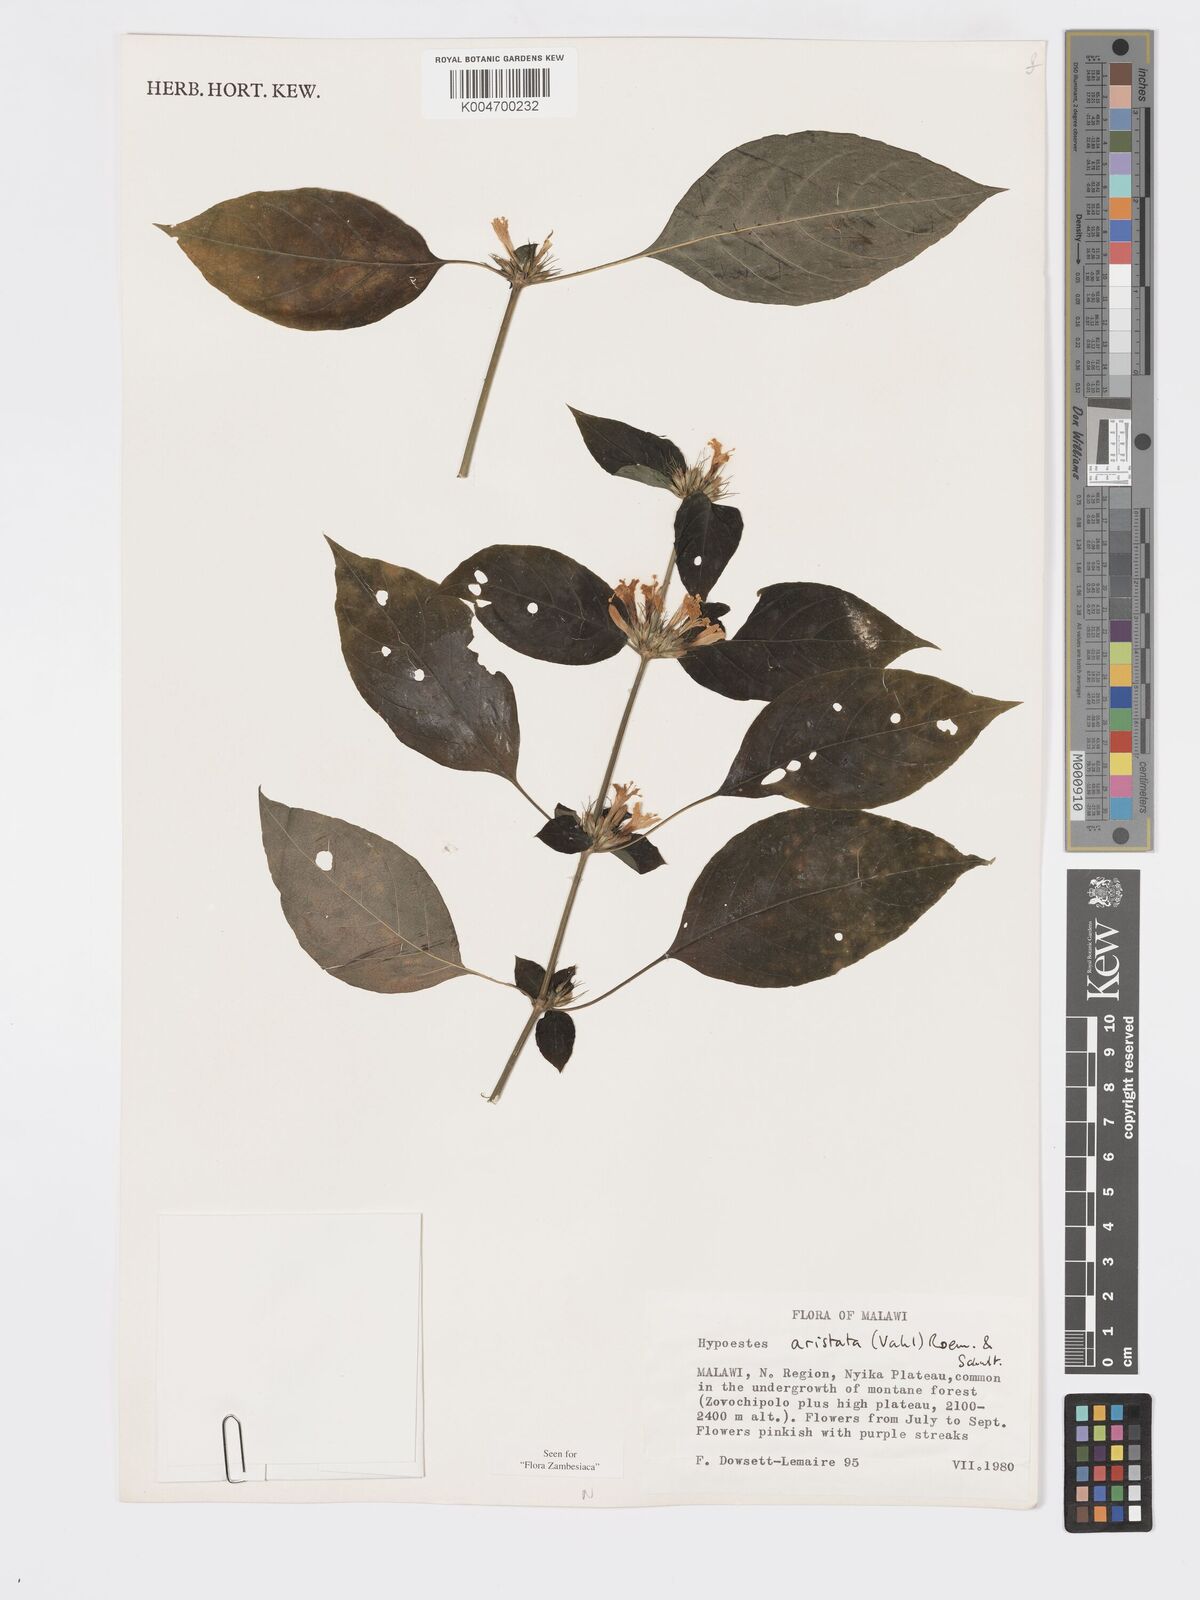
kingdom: Plantae
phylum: Tracheophyta
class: Magnoliopsida
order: Lamiales
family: Acanthaceae
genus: Hypoestes
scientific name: Hypoestes aristata
